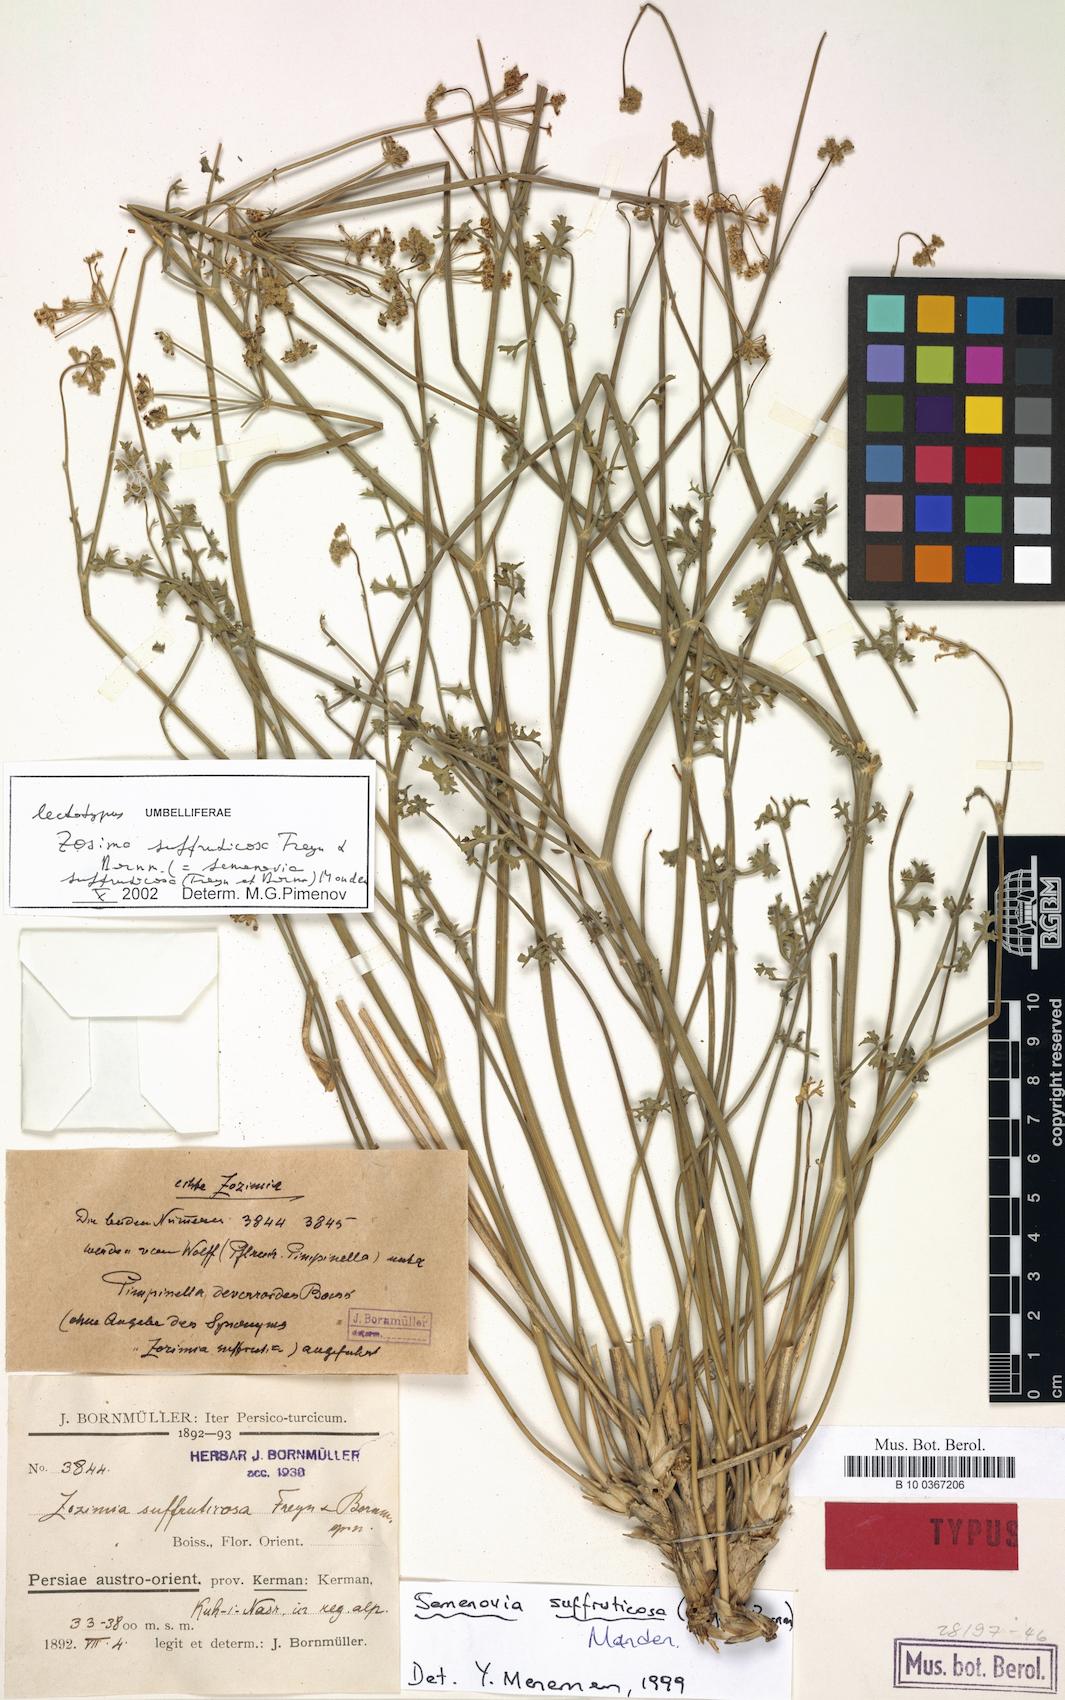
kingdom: Plantae
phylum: Tracheophyta
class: Magnoliopsida
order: Apiales
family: Apiaceae
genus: Semenovia
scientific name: Semenovia suffruticosa
